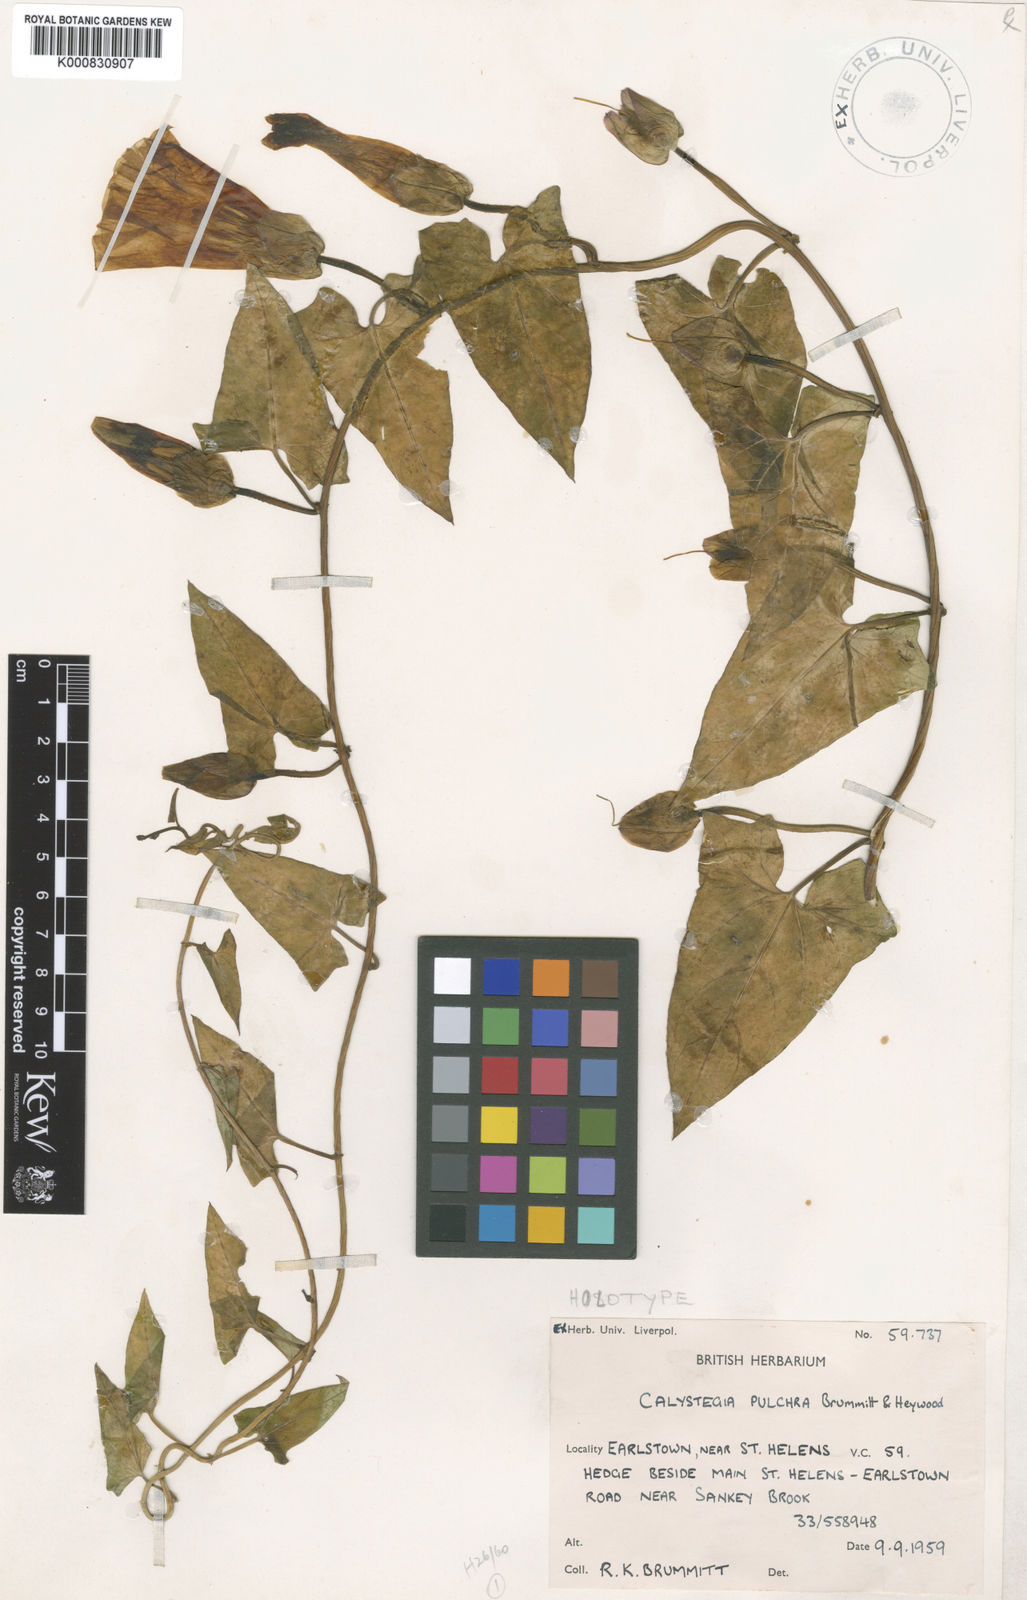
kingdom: Plantae
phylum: Tracheophyta
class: Magnoliopsida
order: Solanales
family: Convolvulaceae
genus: Calystegia
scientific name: Calystegia pulchra
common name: Hairy bindweed
